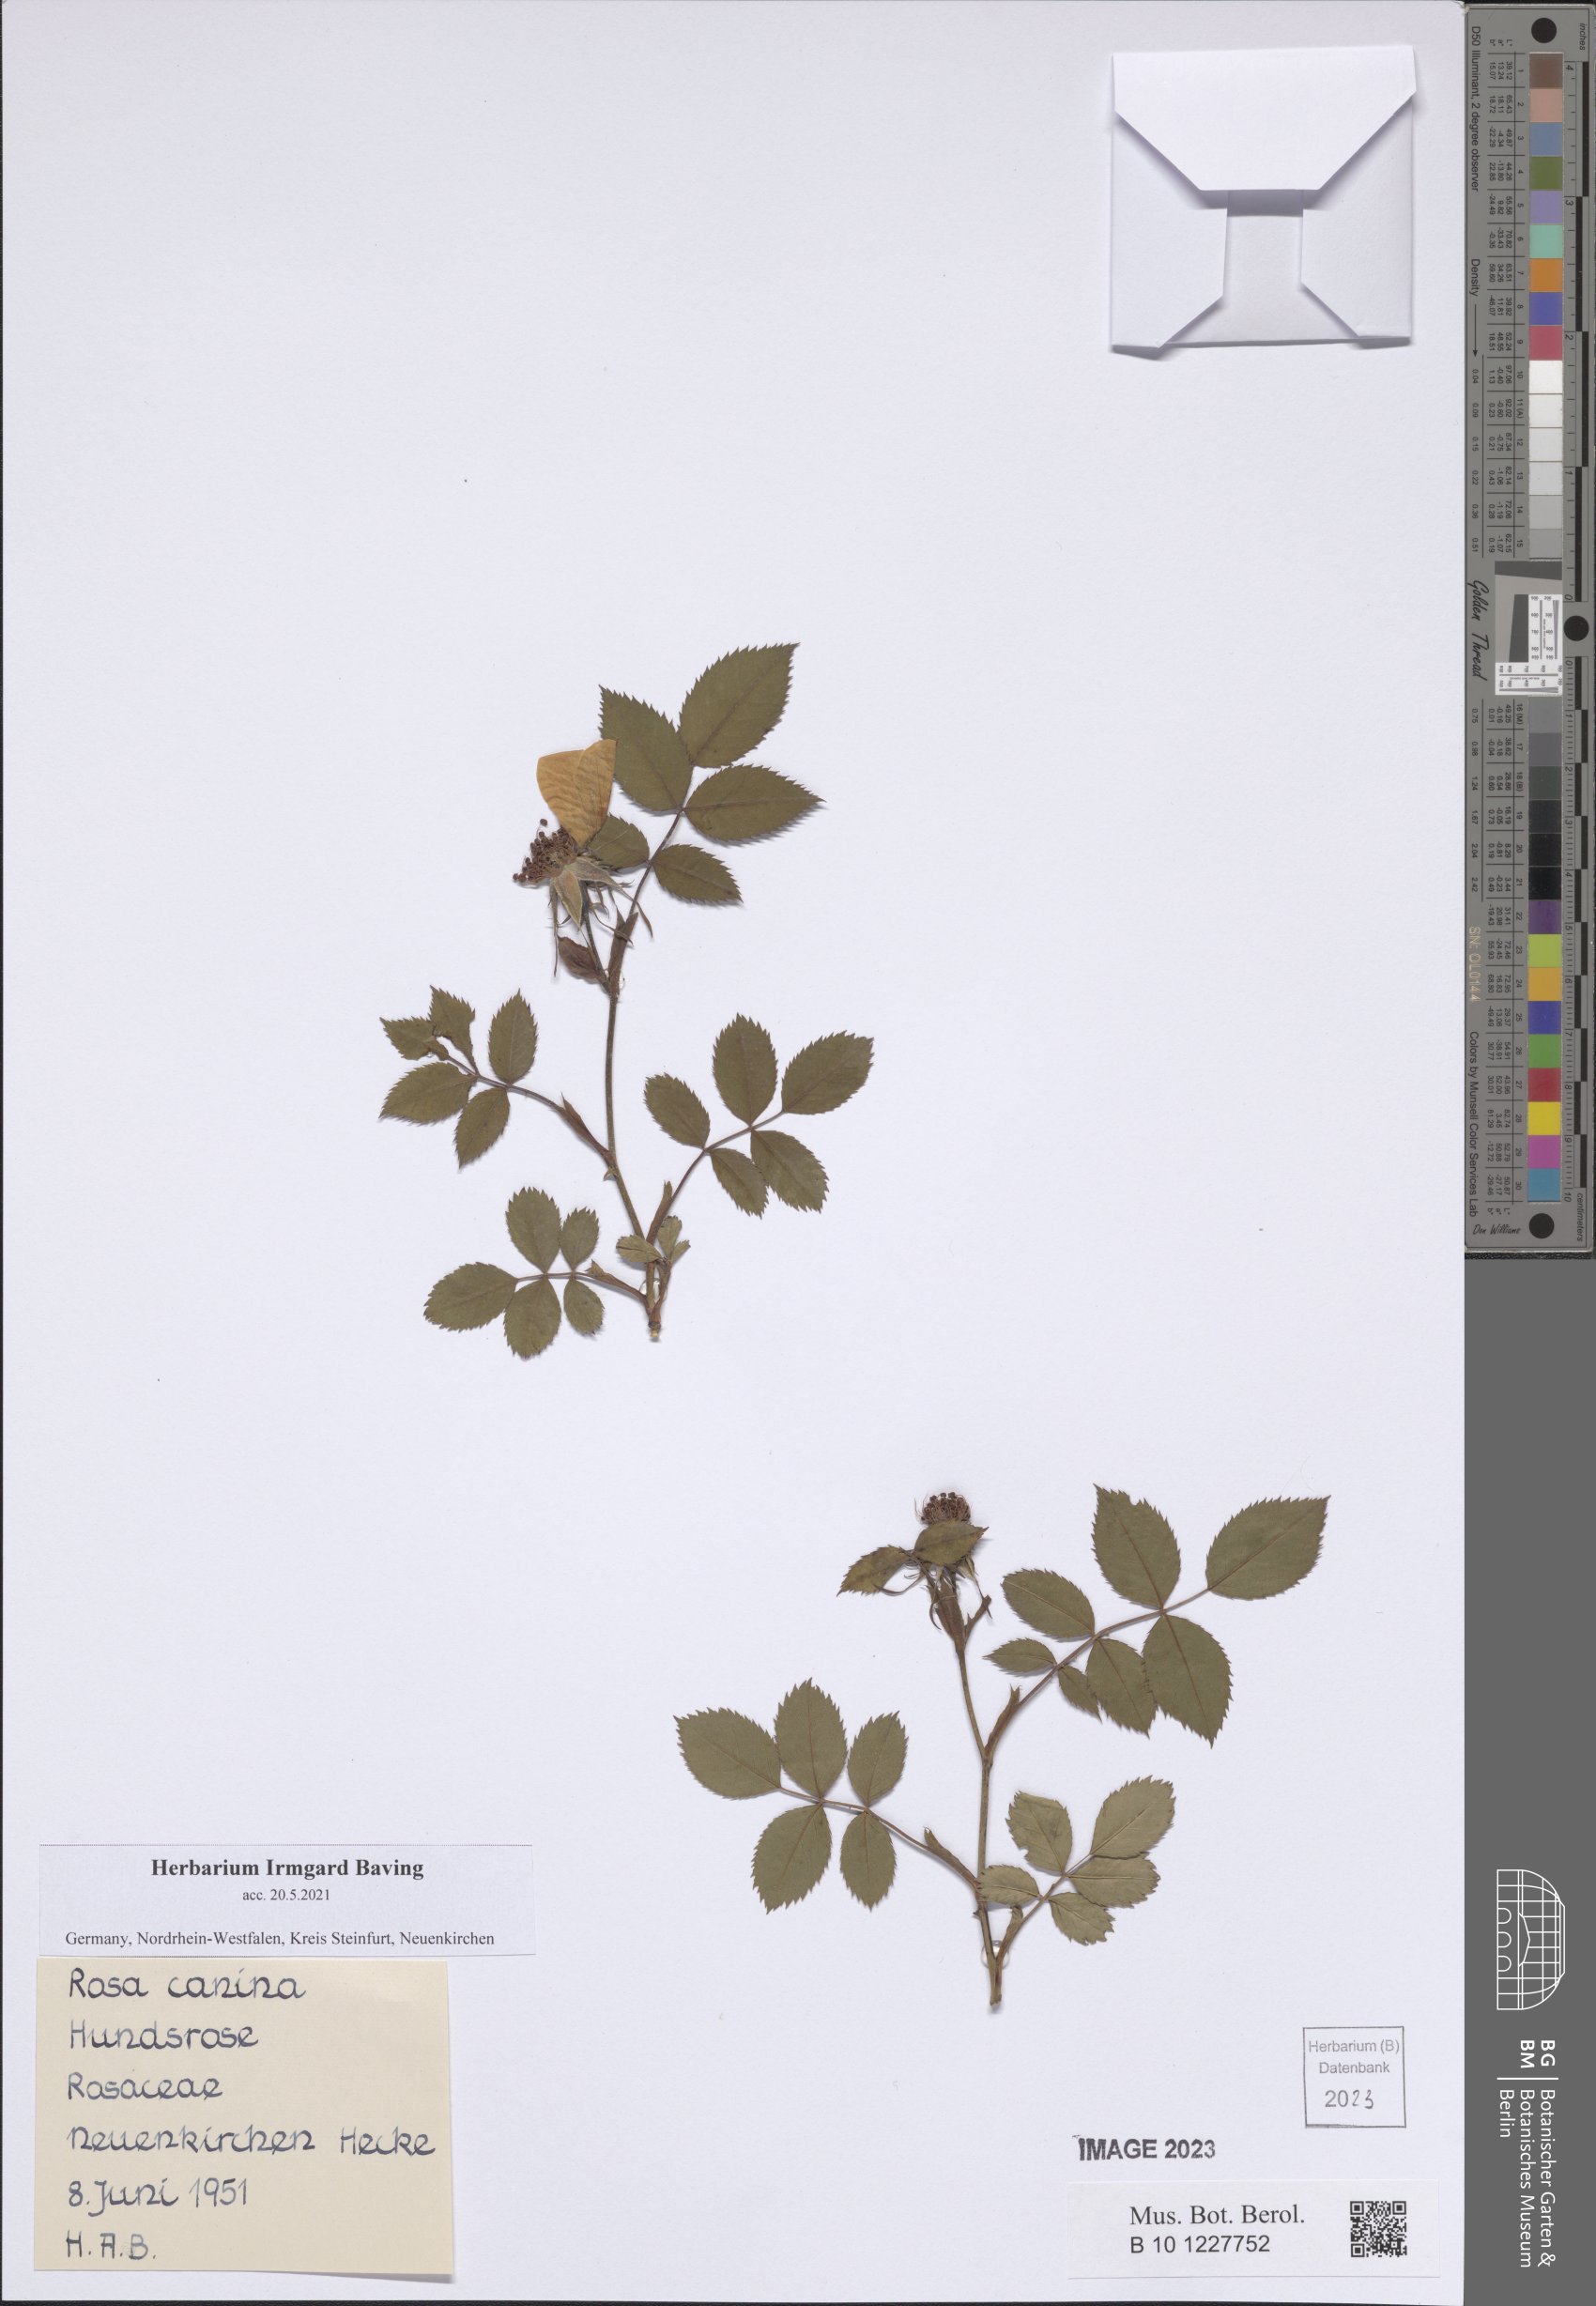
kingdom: Plantae
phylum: Tracheophyta
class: Magnoliopsida
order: Rosales
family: Rosaceae
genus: Rosa
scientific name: Rosa canina
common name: Dog rose
